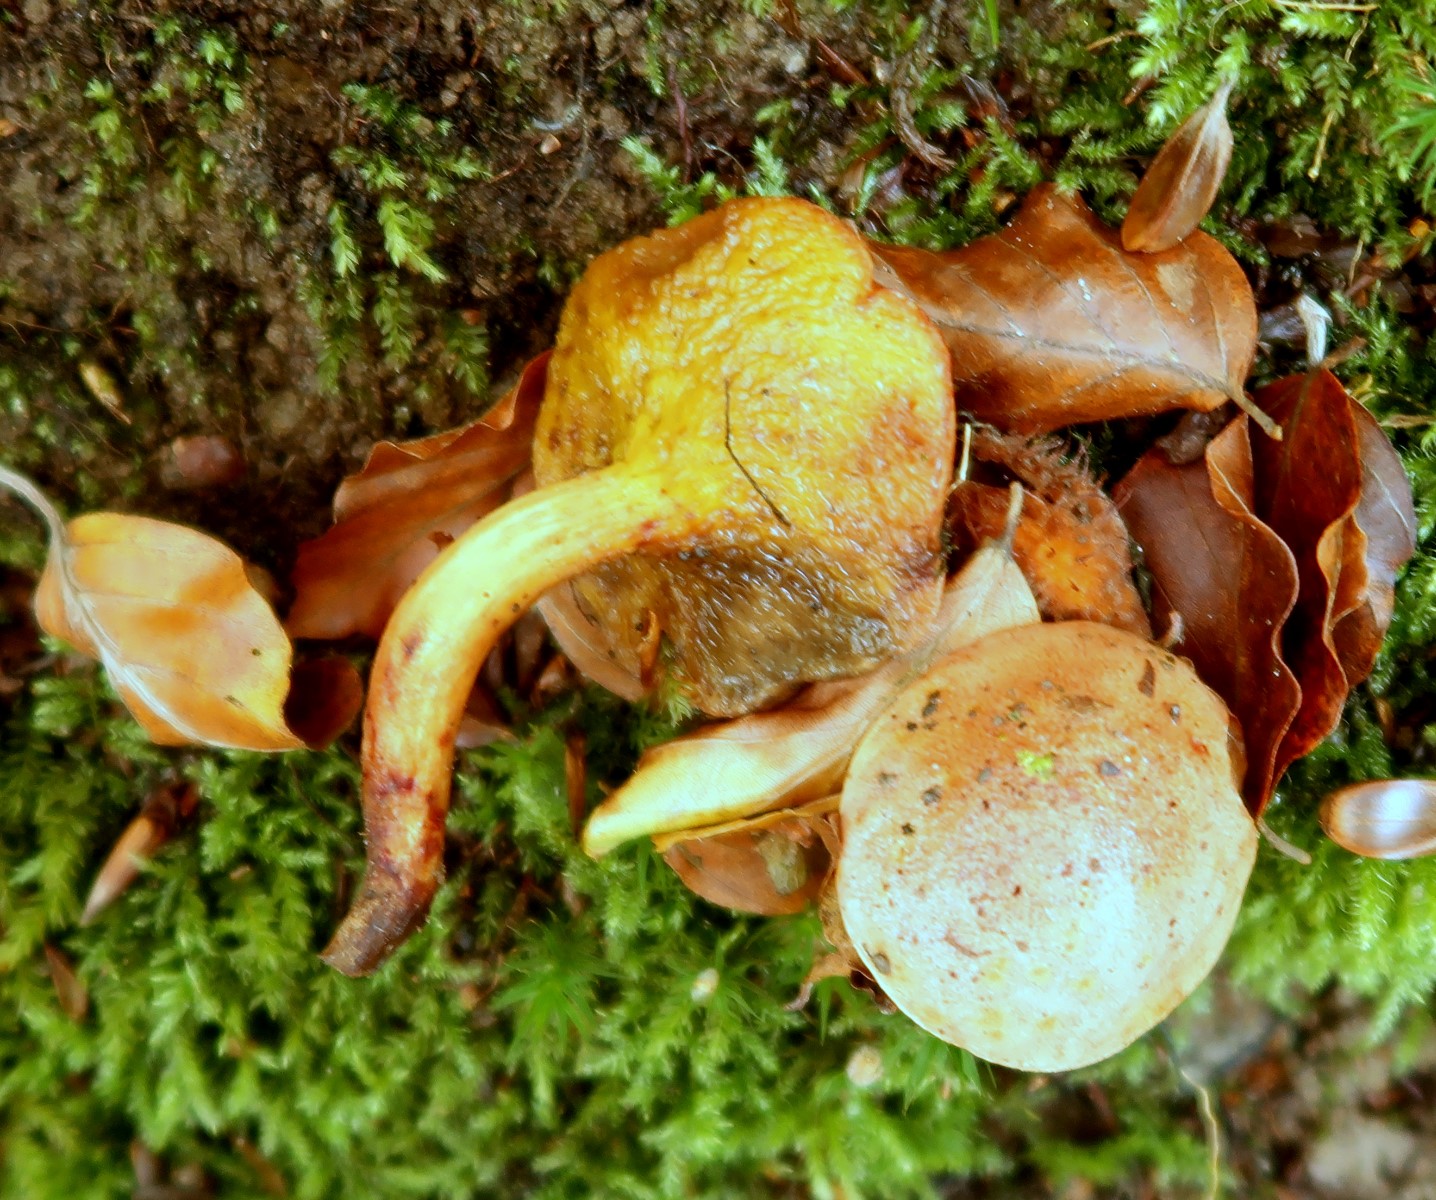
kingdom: Fungi
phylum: Basidiomycota
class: Agaricomycetes
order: Boletales
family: Boletaceae
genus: Aureoboletus
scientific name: Aureoboletus gentilis
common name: guldrørhat
